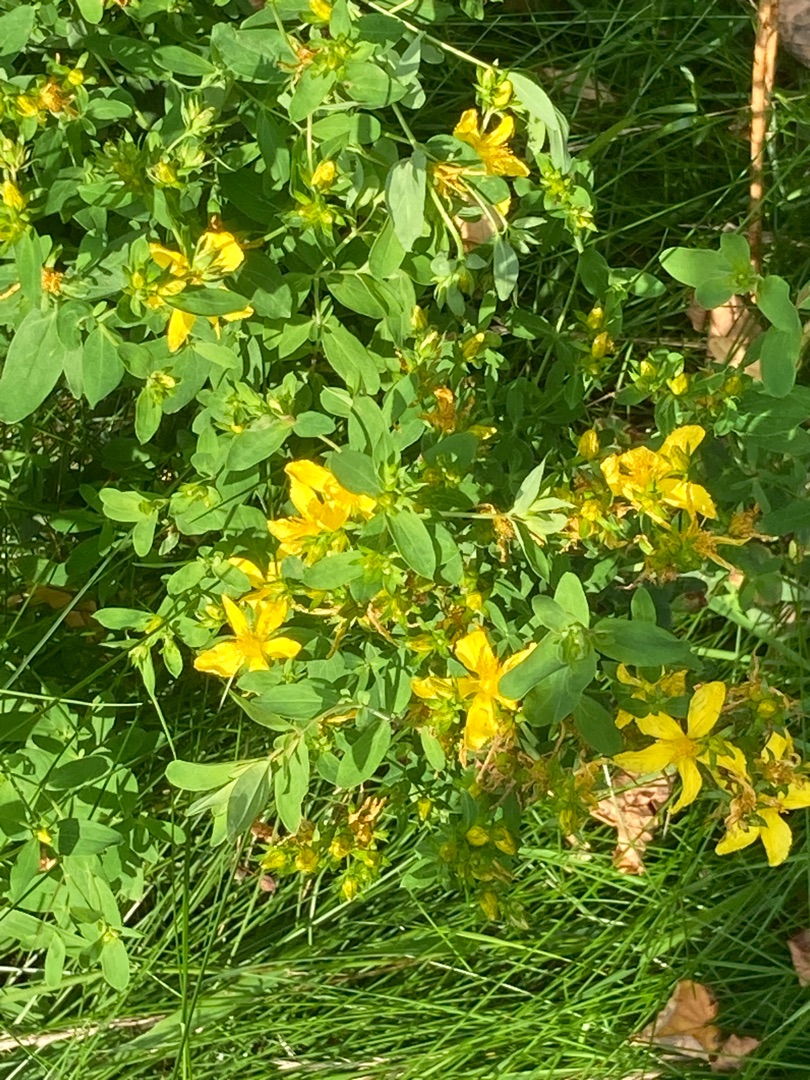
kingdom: Plantae
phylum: Tracheophyta
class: Magnoliopsida
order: Malpighiales
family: Hypericaceae
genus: Hypericum
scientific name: Hypericum perforatum
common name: Prikbladet perikon
